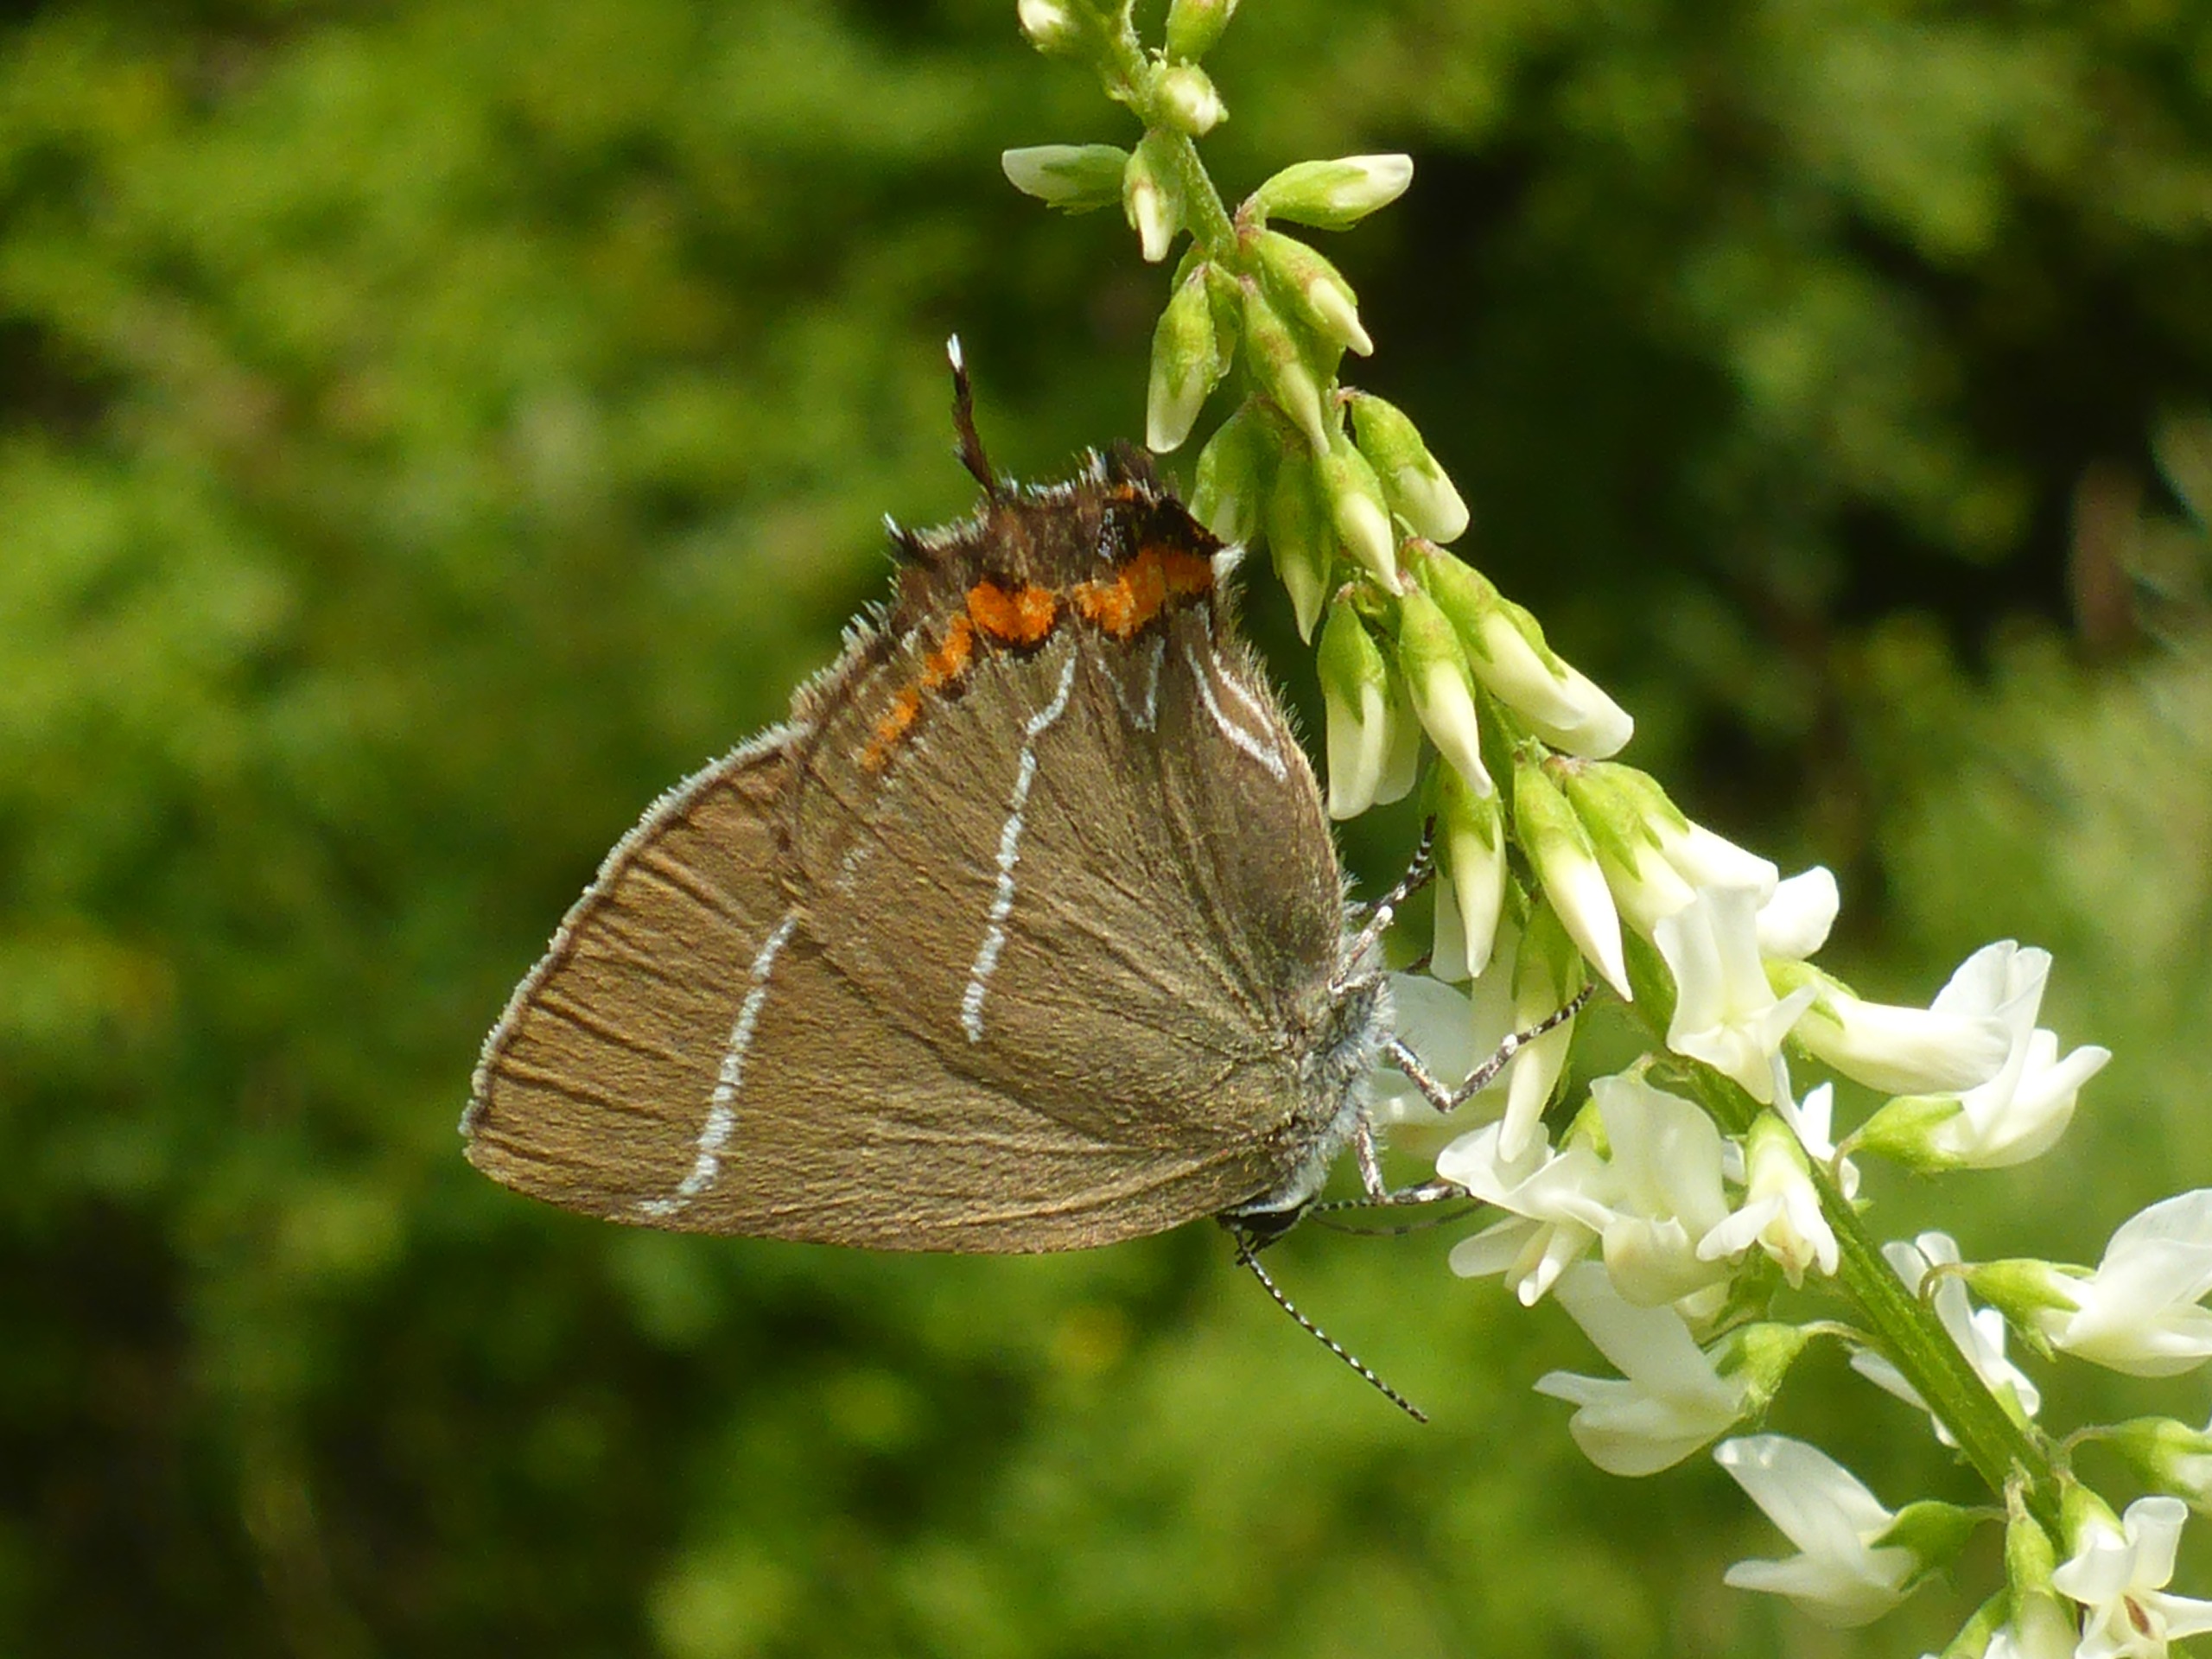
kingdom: Animalia
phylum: Arthropoda
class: Insecta
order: Lepidoptera
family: Lycaenidae
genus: Satyrium
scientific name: Satyrium w-album
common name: Det hvide W
